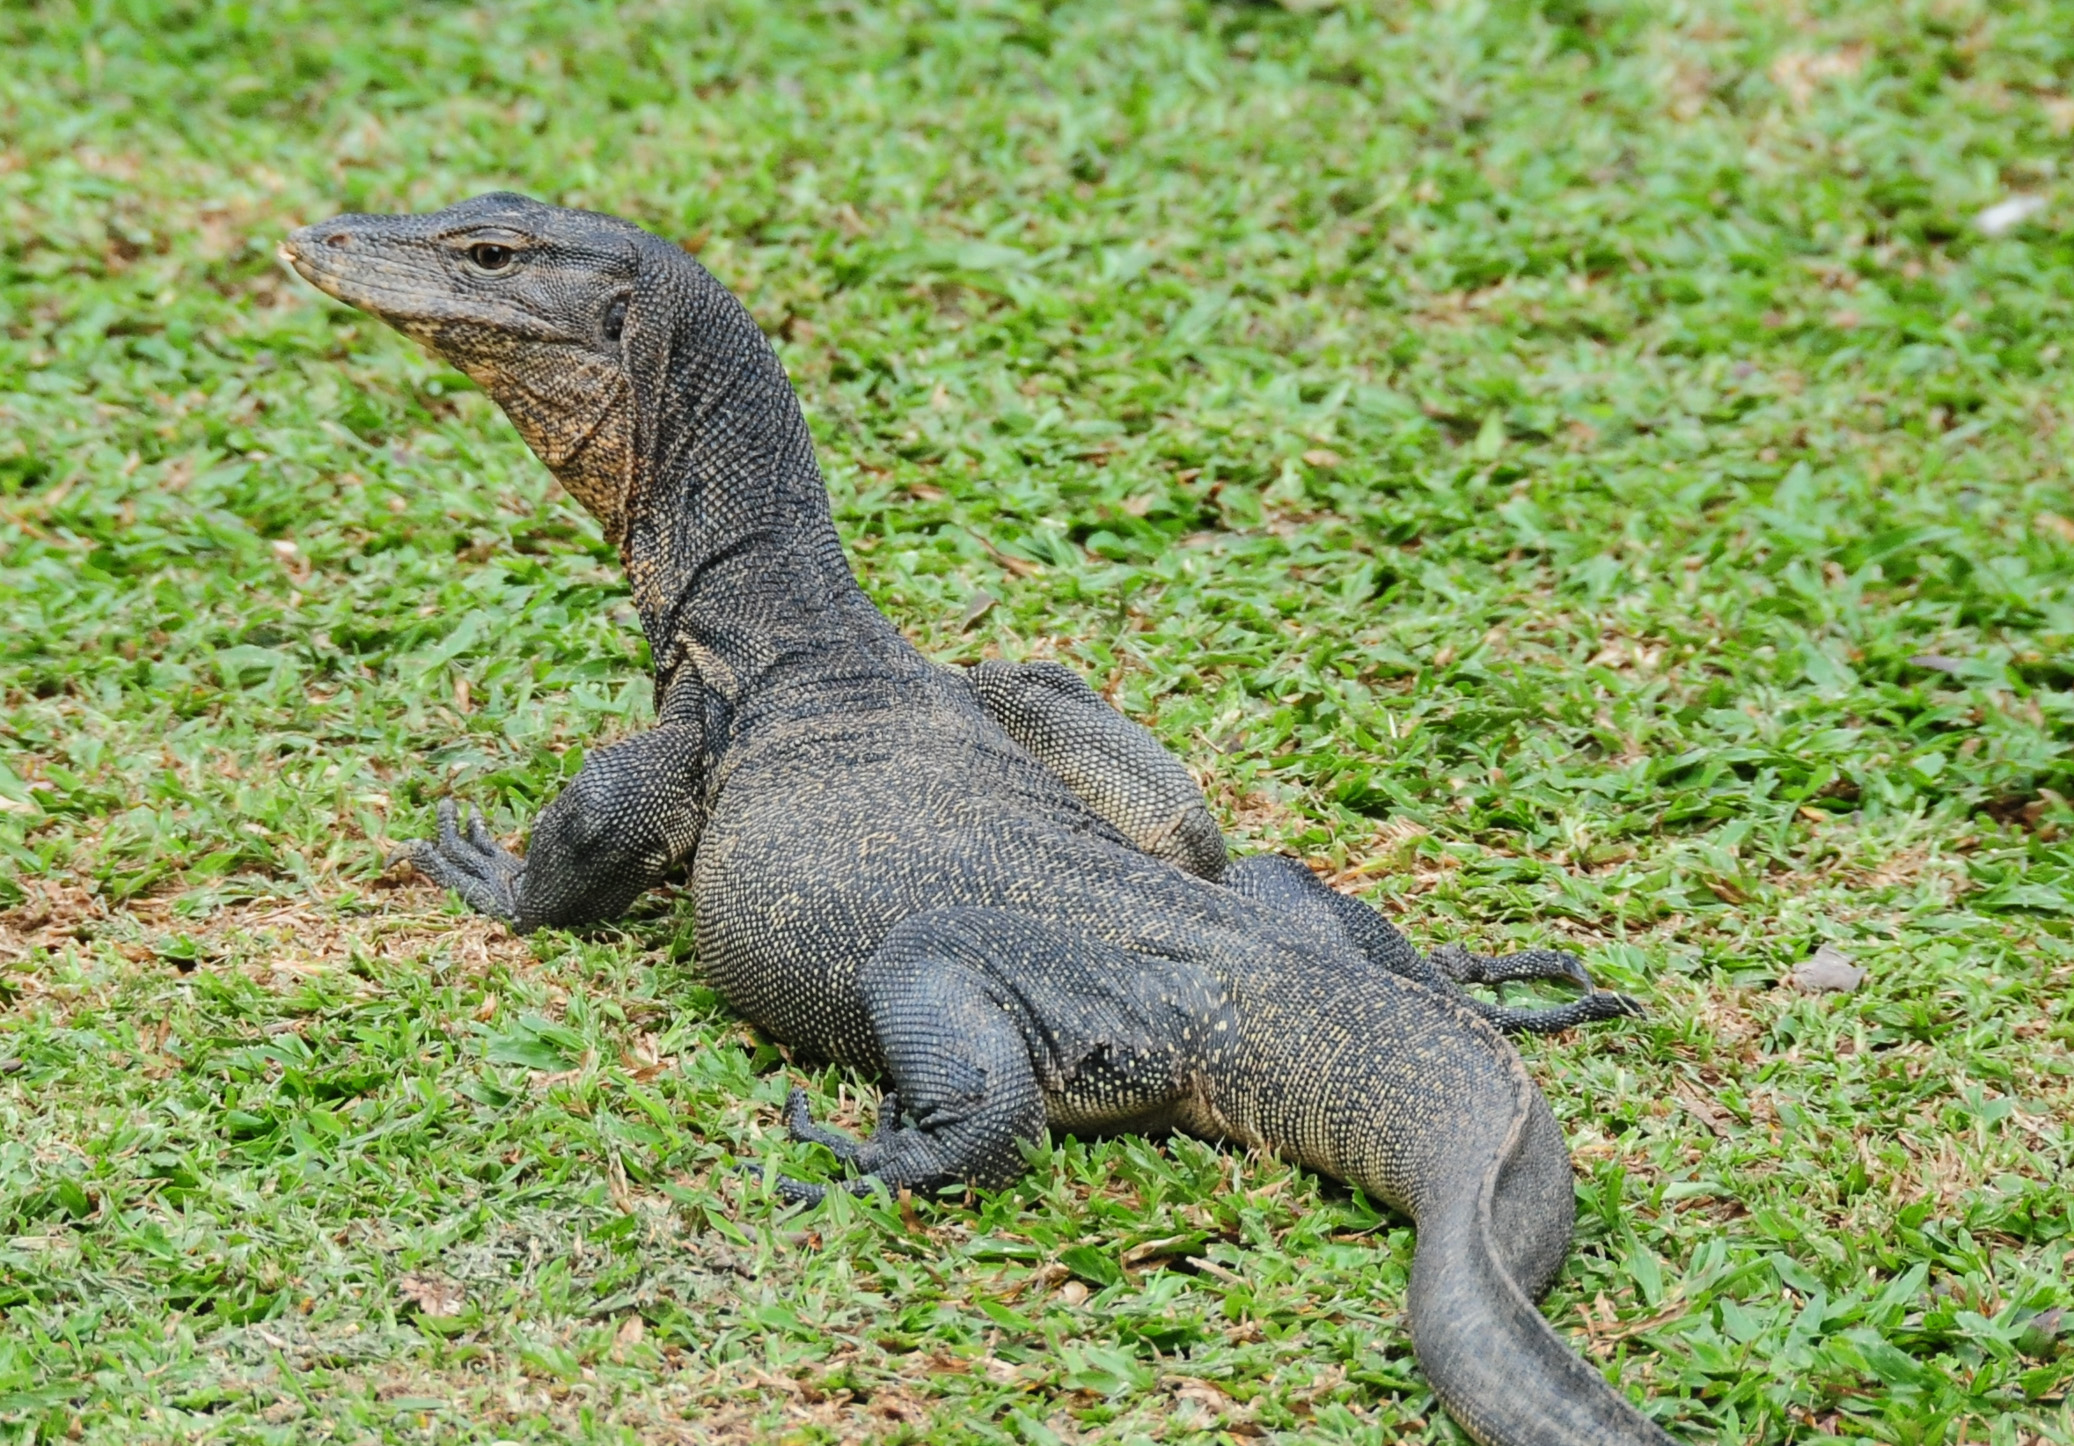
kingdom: Animalia
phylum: Chordata
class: Squamata
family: Varanidae
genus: Varanus
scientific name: Varanus nebulosus
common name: Clouded monitor
